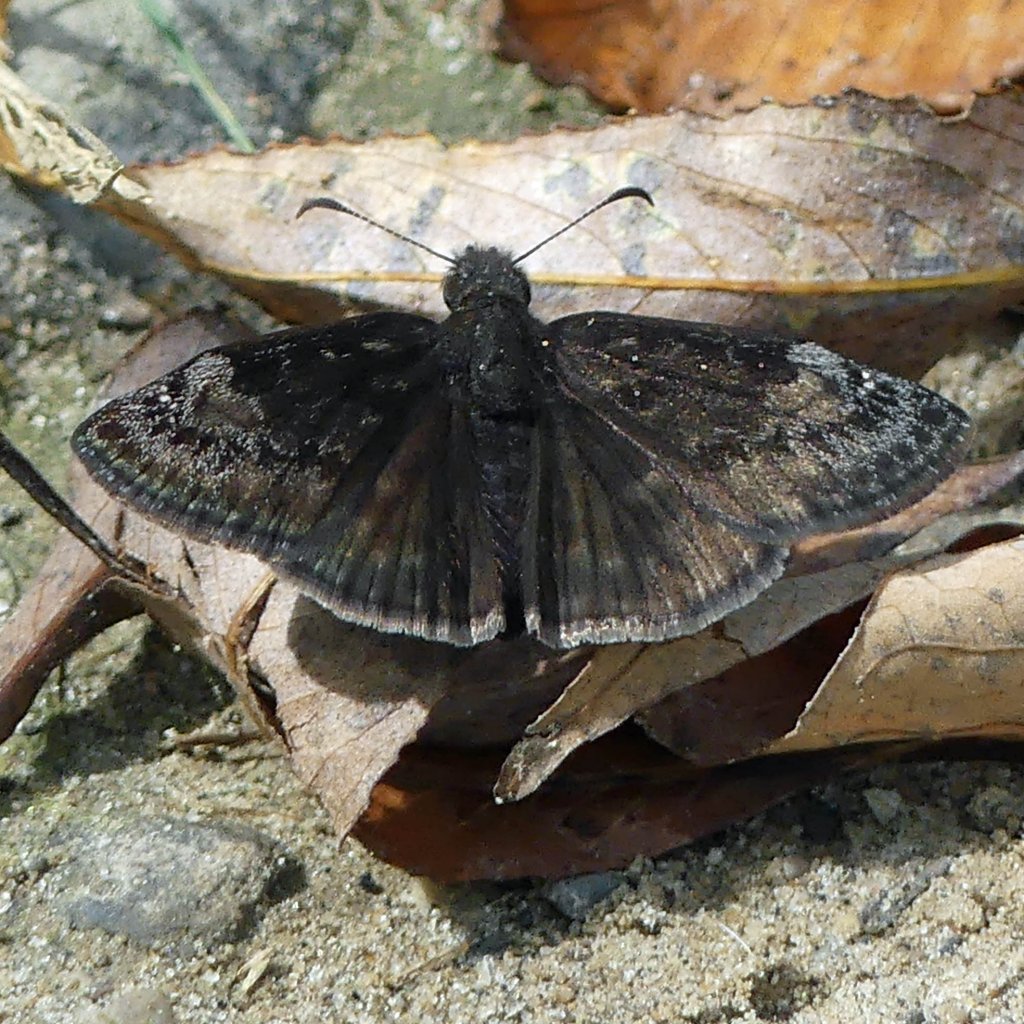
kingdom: Animalia
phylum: Arthropoda
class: Insecta
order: Lepidoptera
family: Hesperiidae
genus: Gesta
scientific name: Gesta
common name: Wild Indigo Duskywing
